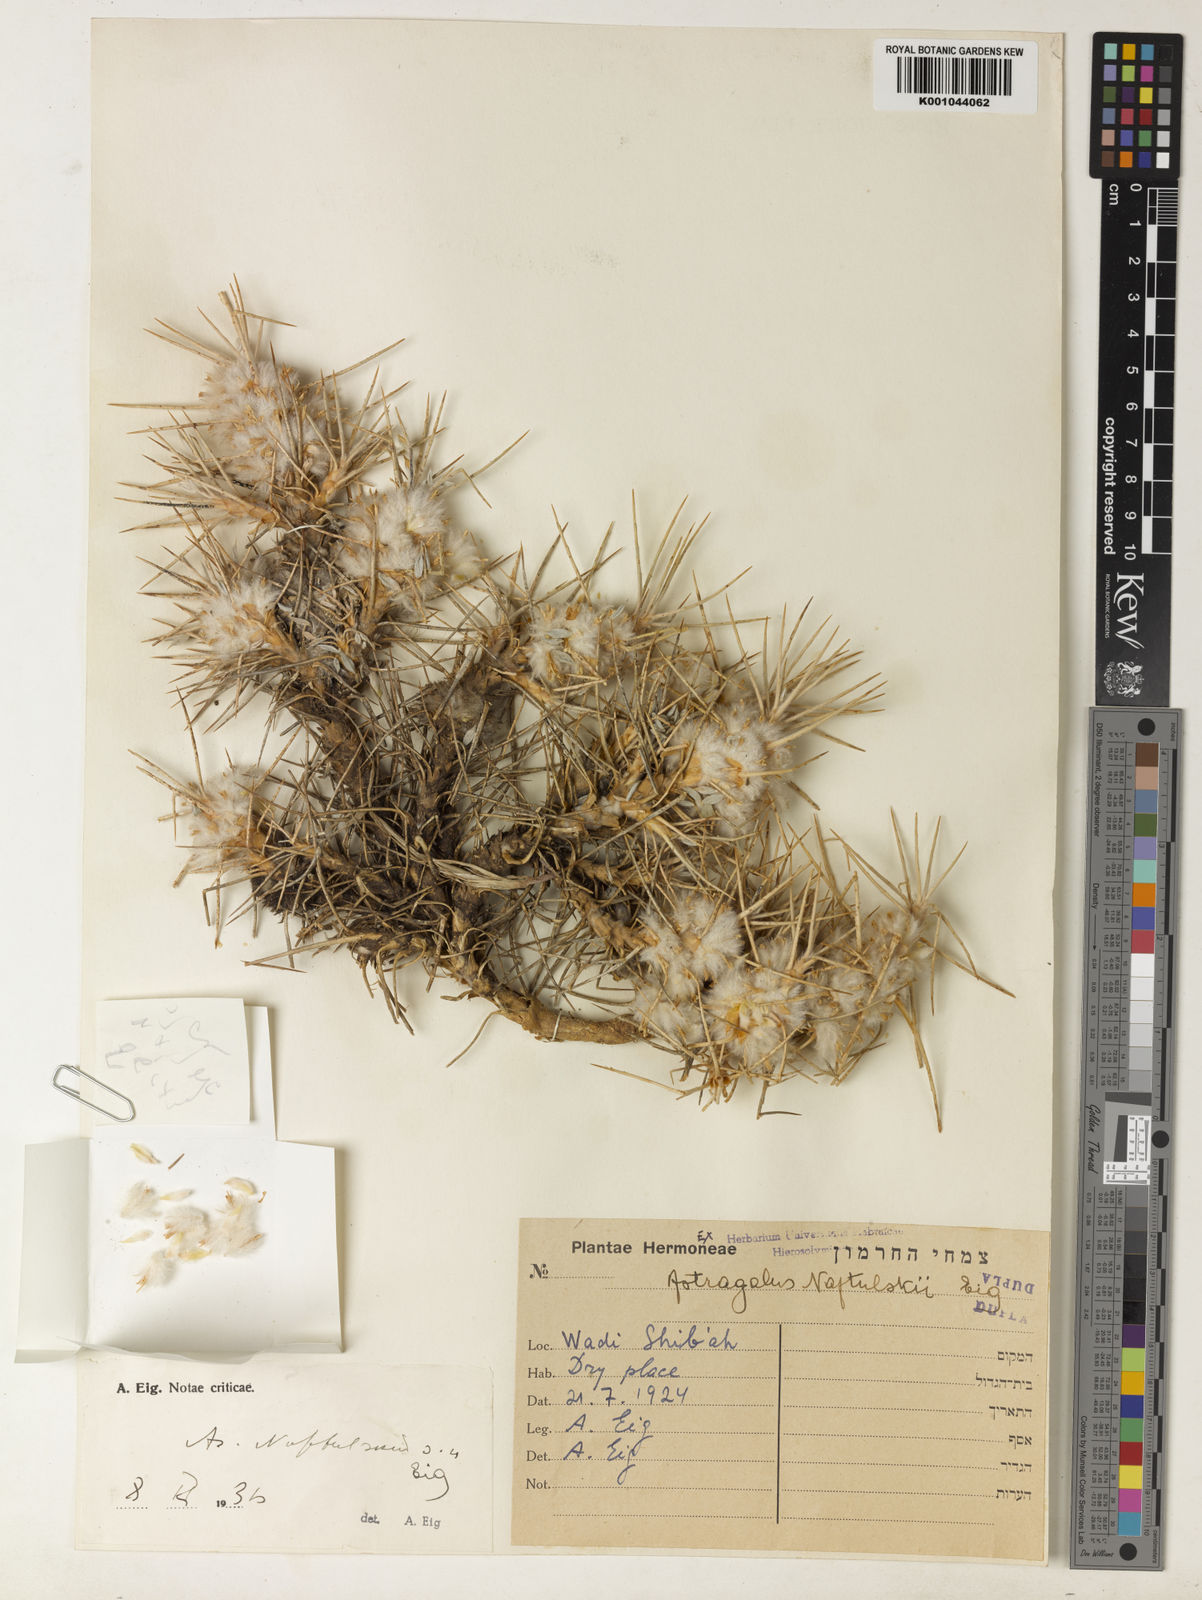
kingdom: Plantae
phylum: Tracheophyta
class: Magnoliopsida
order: Fabales
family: Fabaceae
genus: Astragalus
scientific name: Astragalus zachlensis
